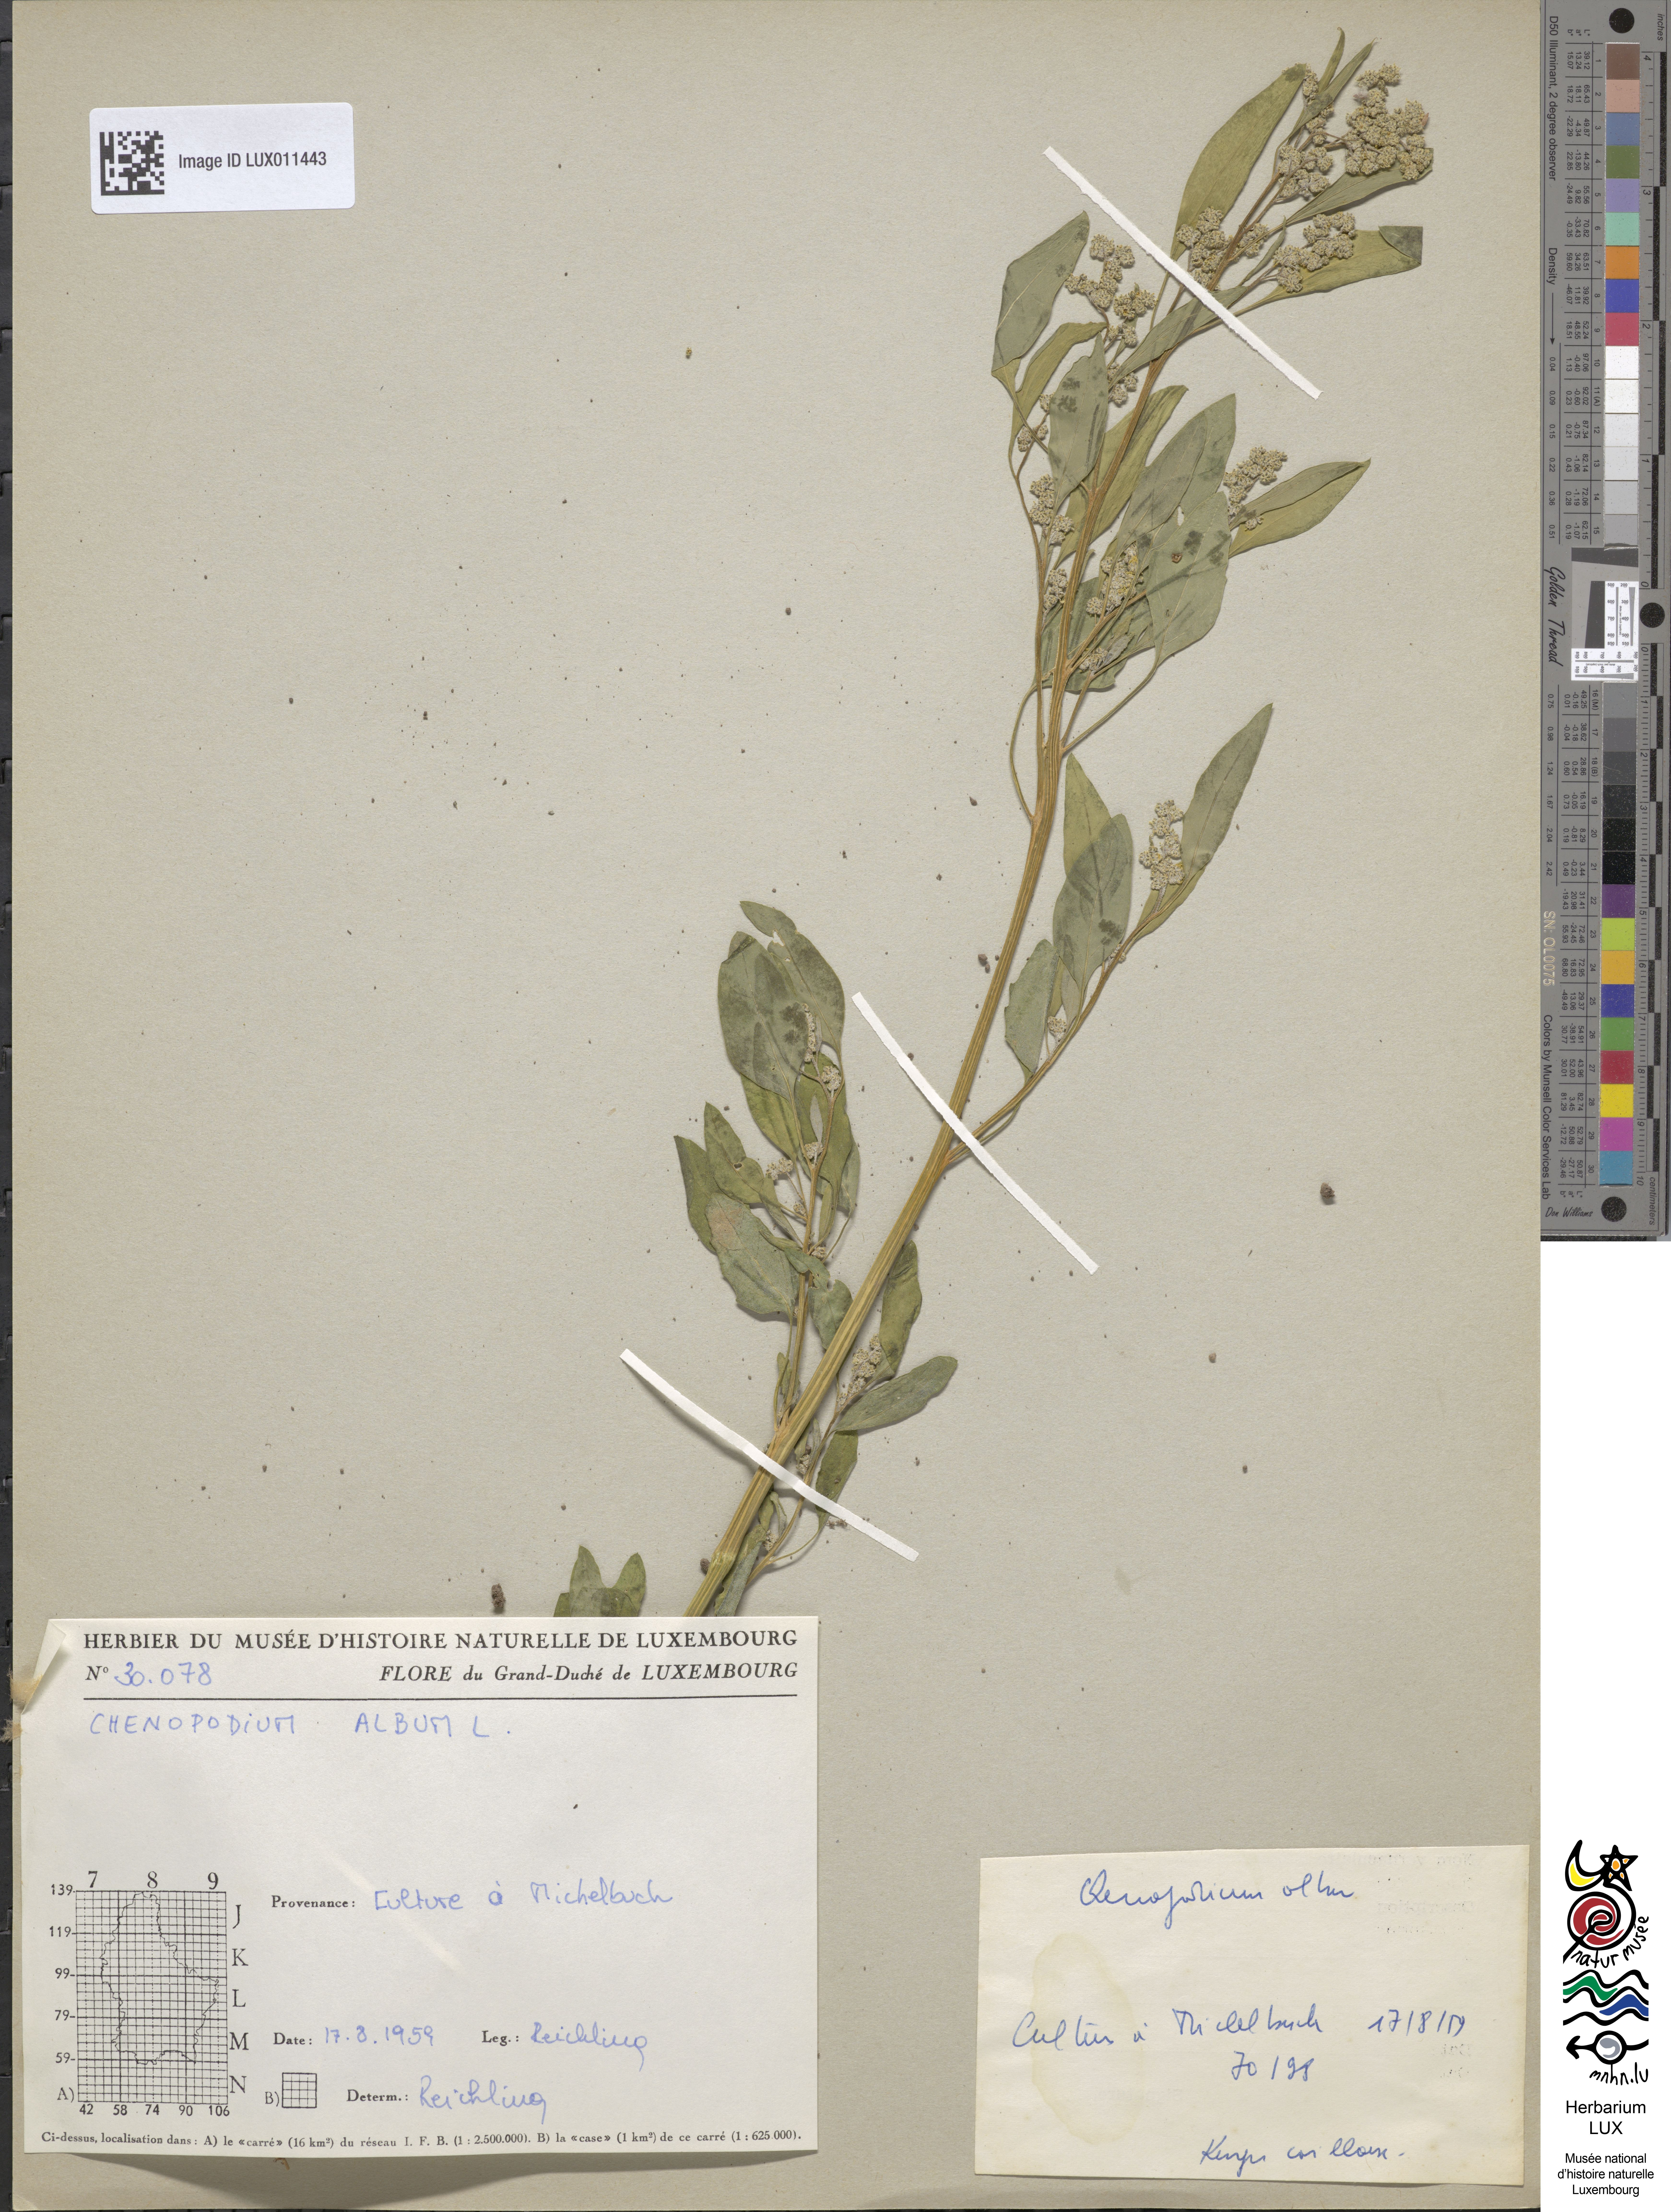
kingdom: Plantae
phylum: Tracheophyta
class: Magnoliopsida
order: Caryophyllales
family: Amaranthaceae
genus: Chenopodium
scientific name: Chenopodium album
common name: Fat-hen
